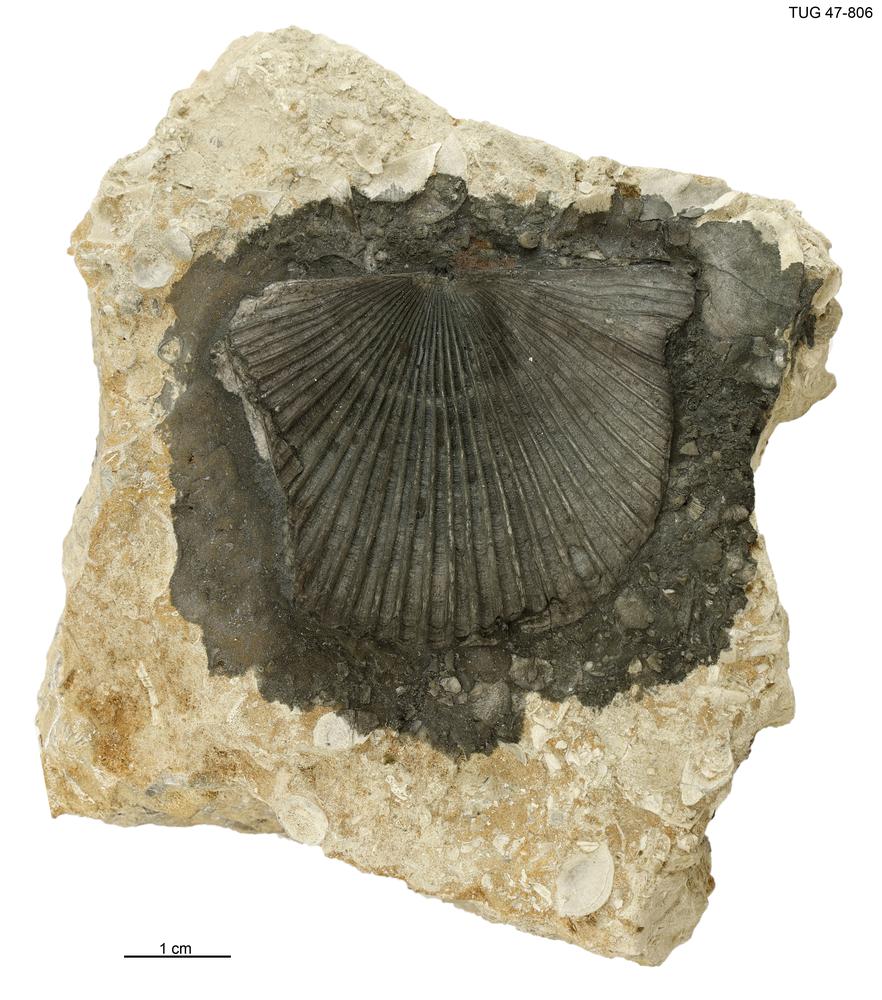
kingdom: Animalia
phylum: Brachiopoda
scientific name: Brachiopoda
